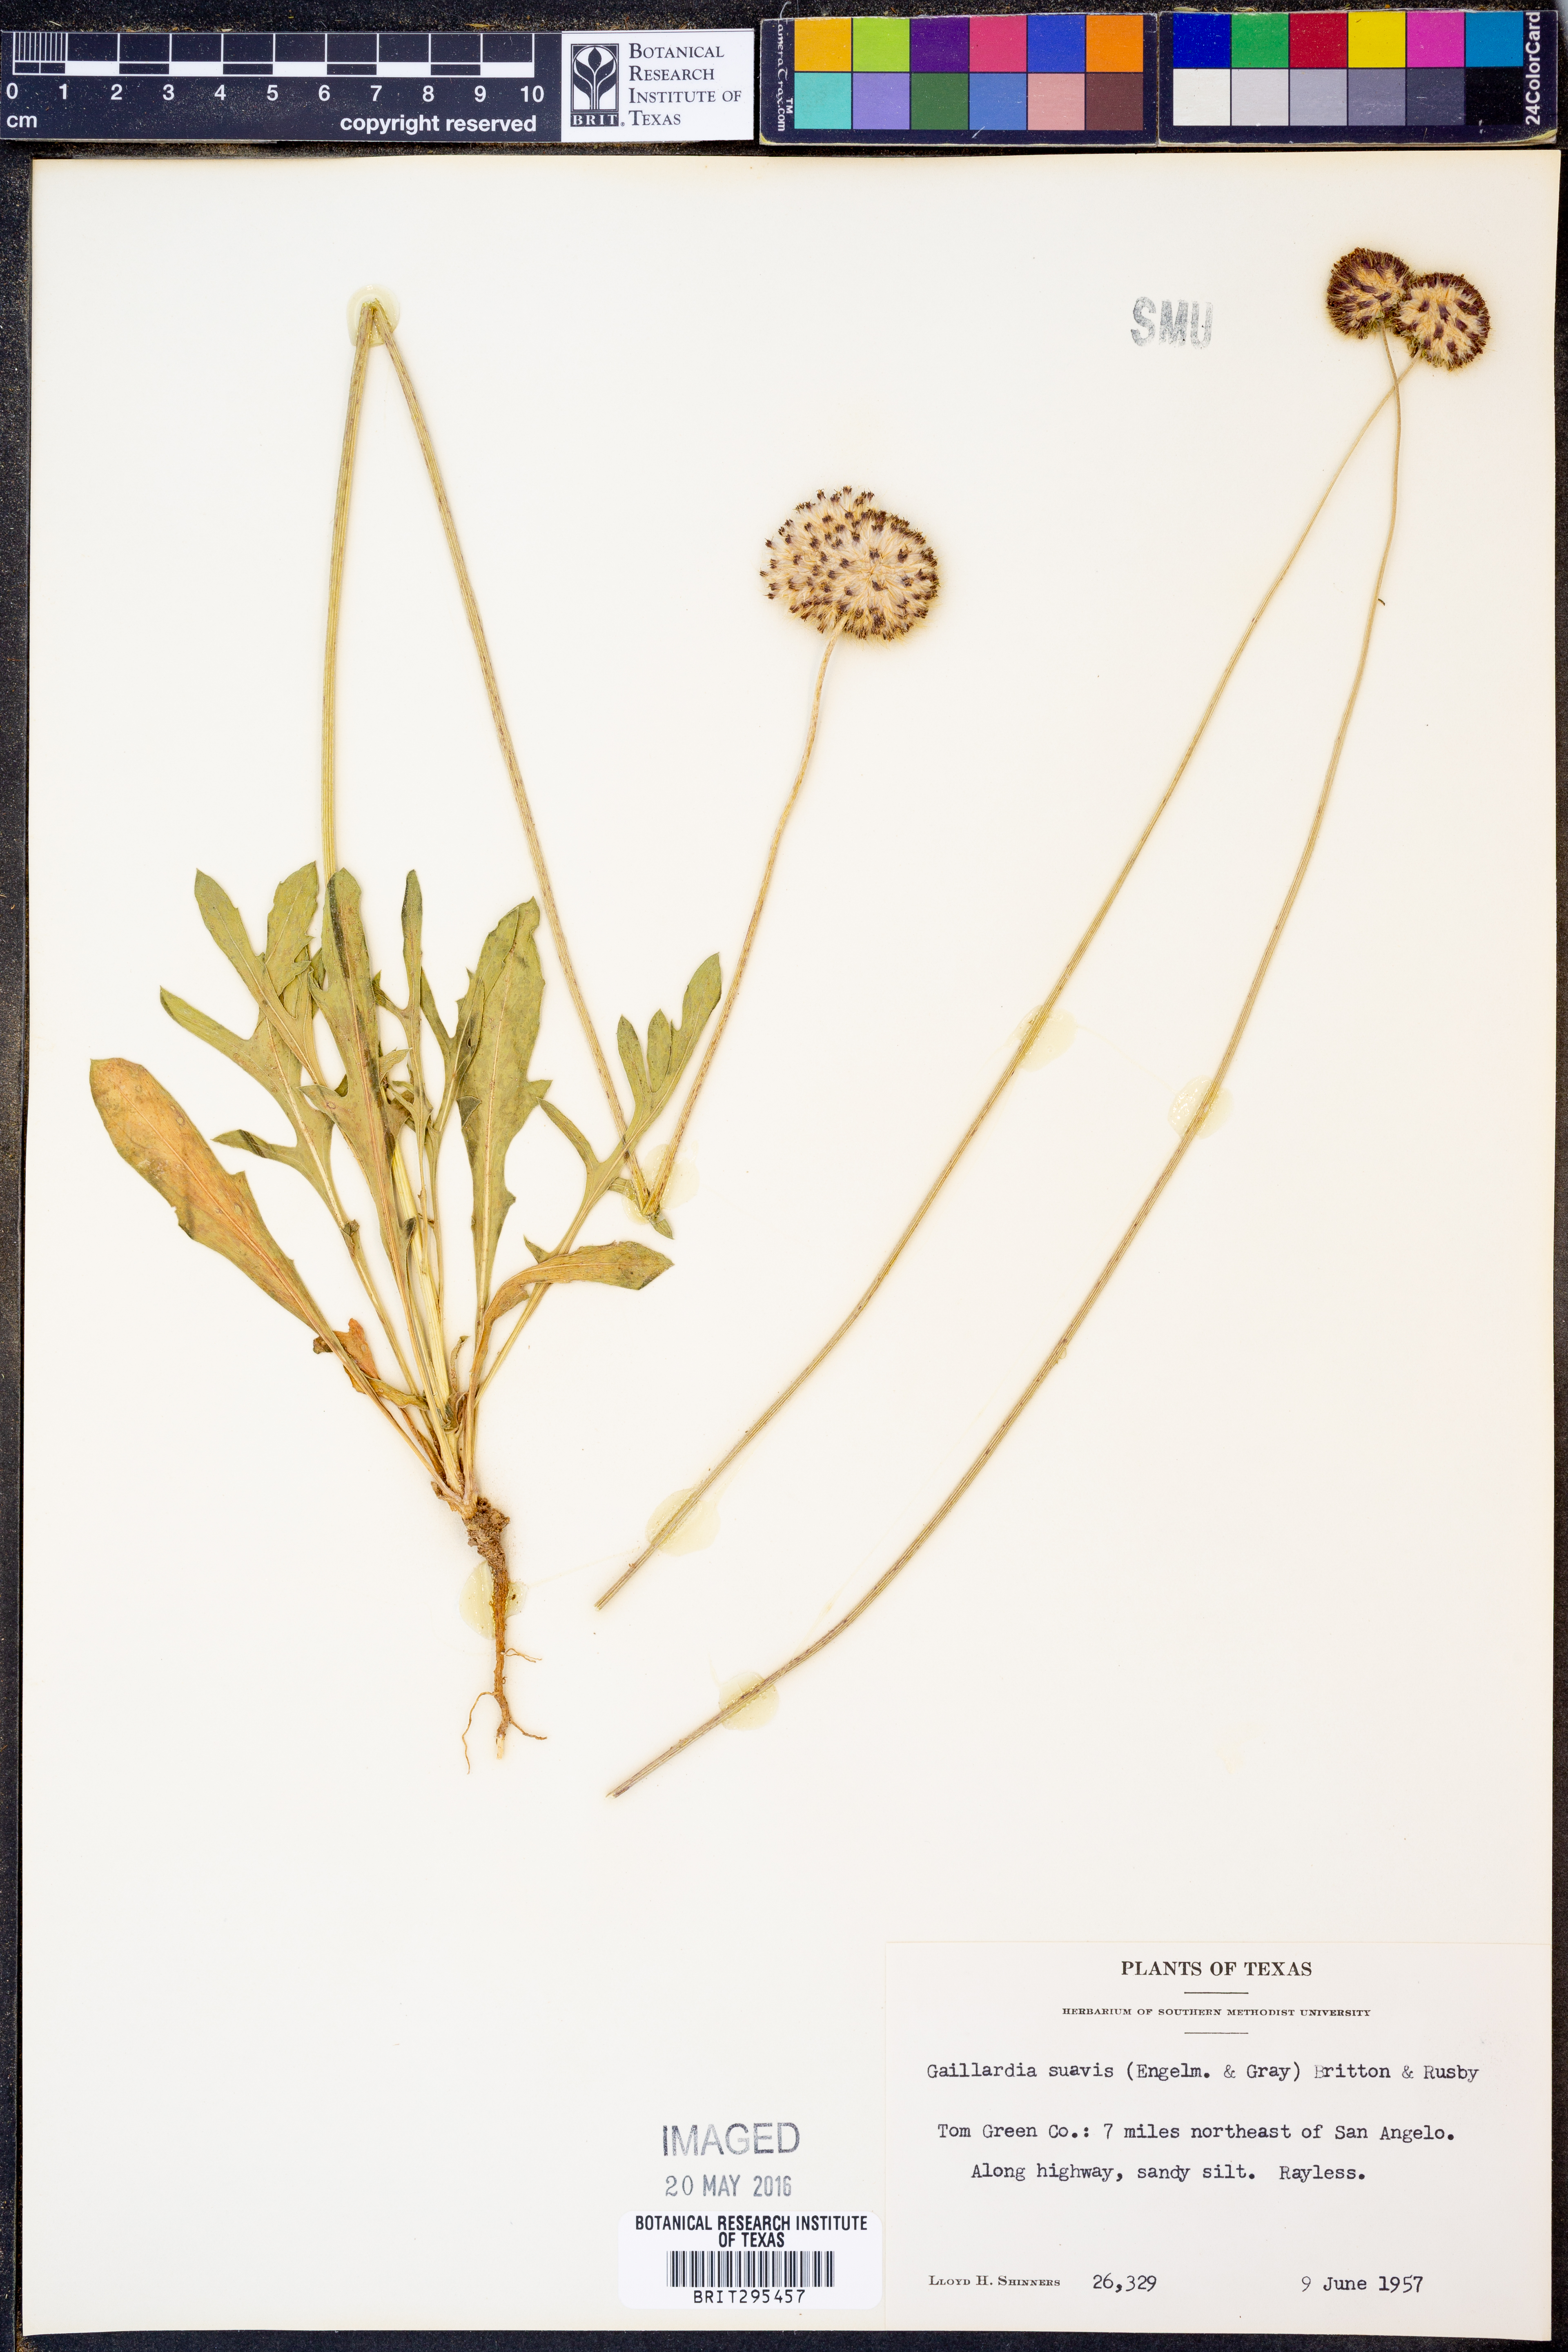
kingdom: Plantae
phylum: Tracheophyta
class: Magnoliopsida
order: Asterales
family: Asteraceae
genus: Gaillardia
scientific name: Gaillardia suavis
